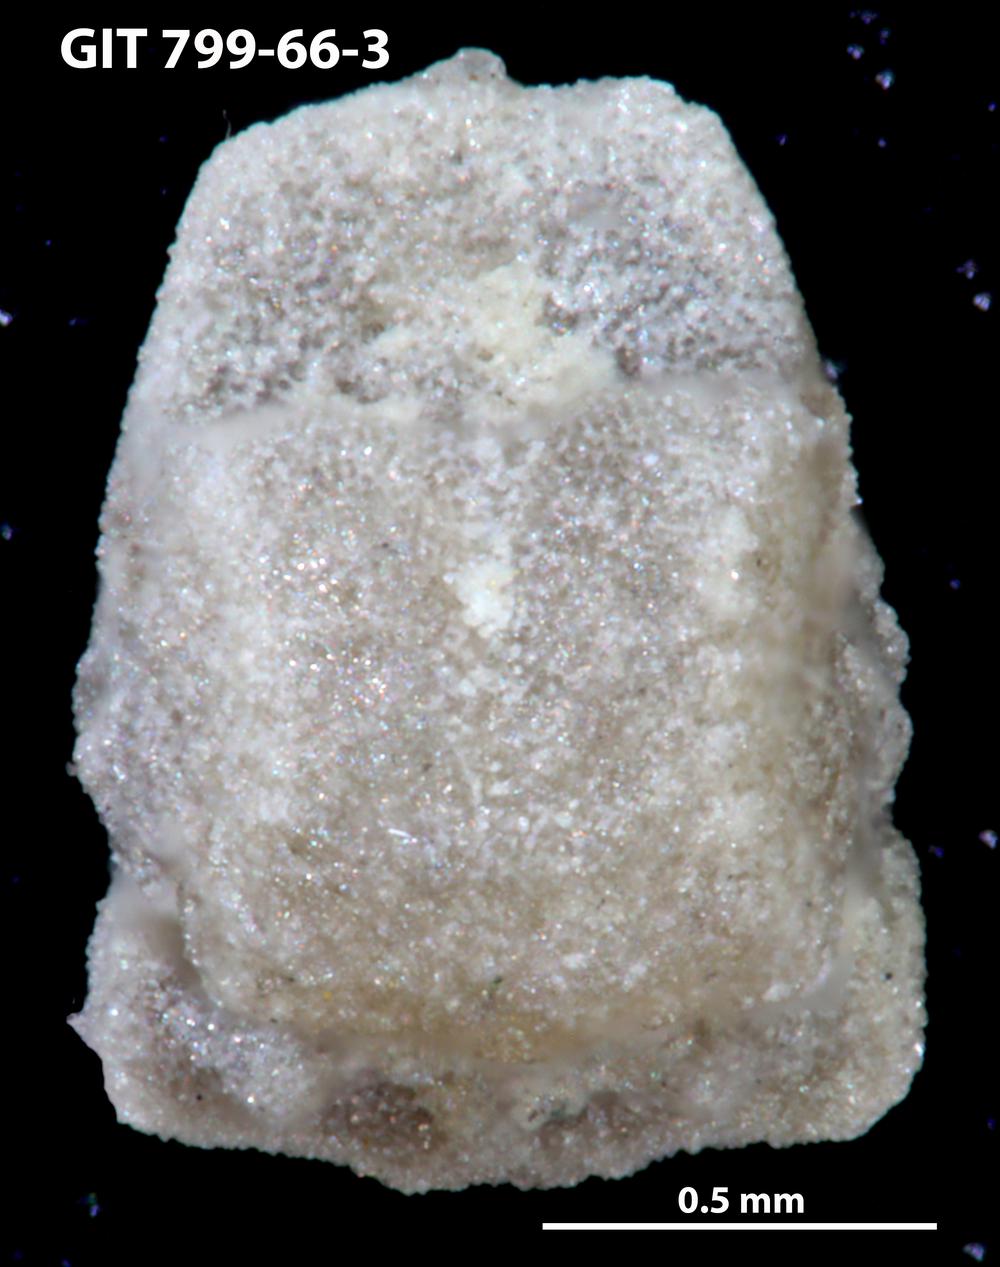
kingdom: Animalia
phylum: Echinodermata
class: Crinoidea
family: Cyclocystoididae
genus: Polytryphocycloides
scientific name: Polytryphocycloides
